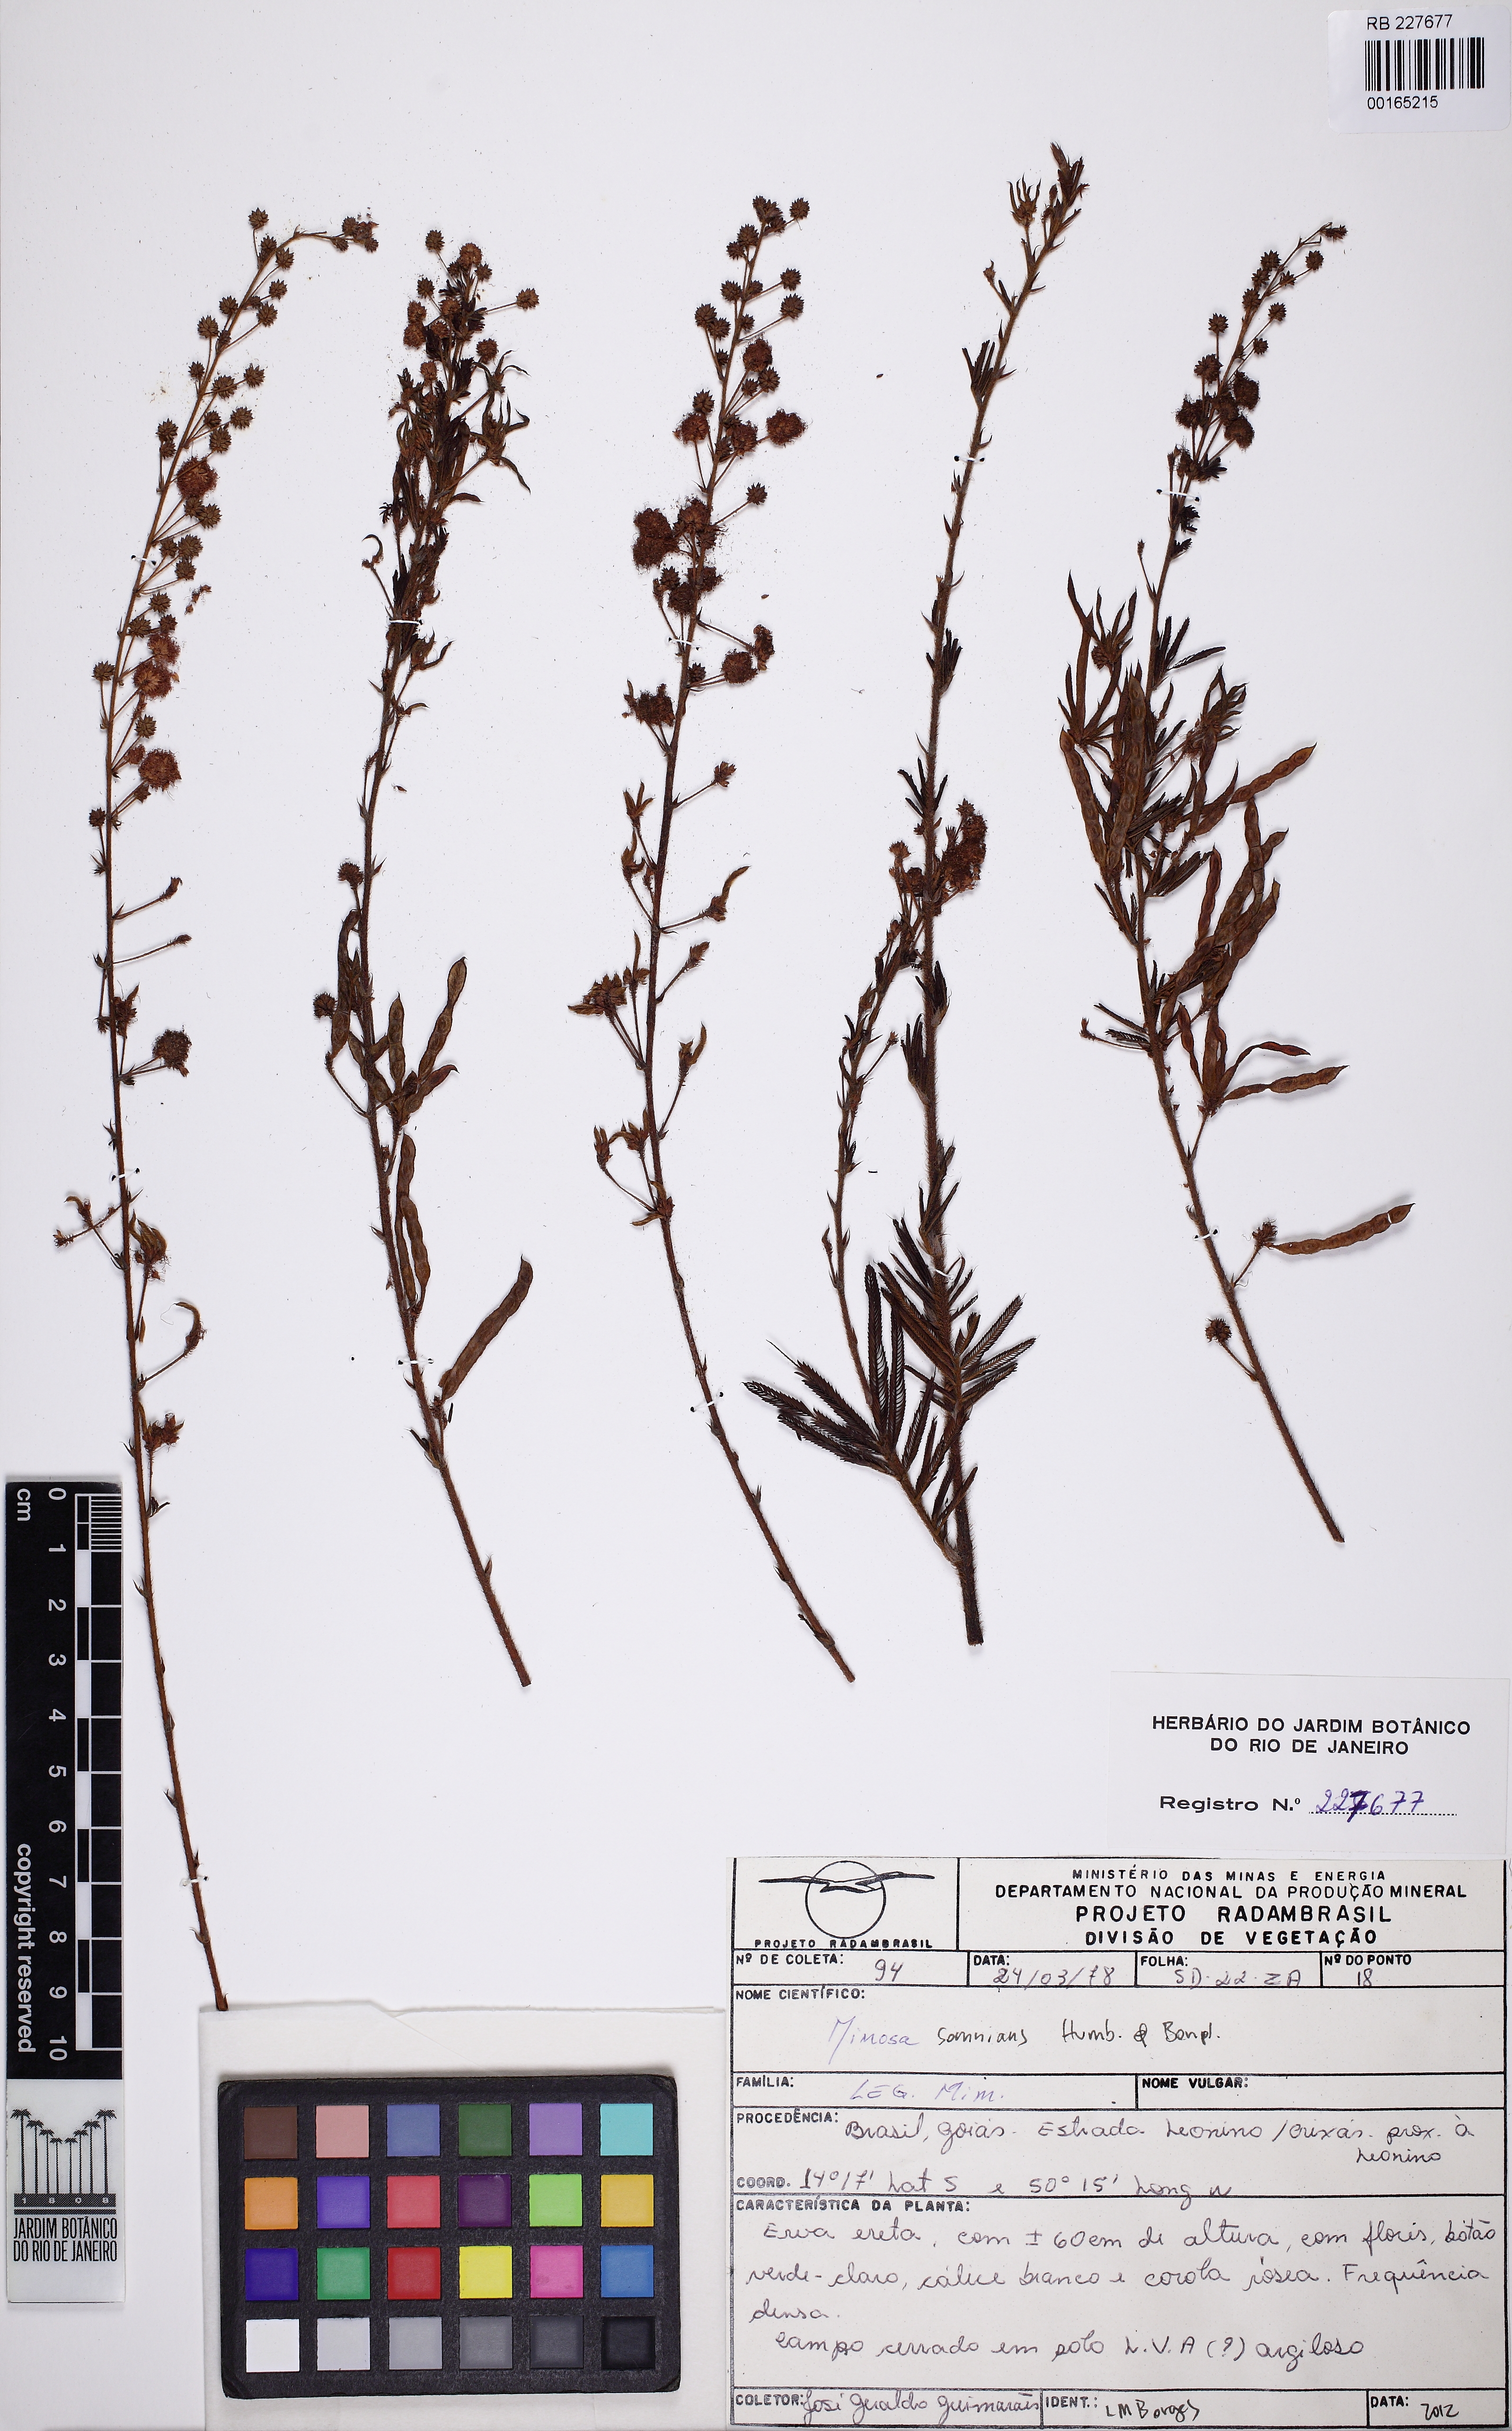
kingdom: Plantae
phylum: Tracheophyta
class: Magnoliopsida
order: Fabales
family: Fabaceae
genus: Mimosa
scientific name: Mimosa somnians
